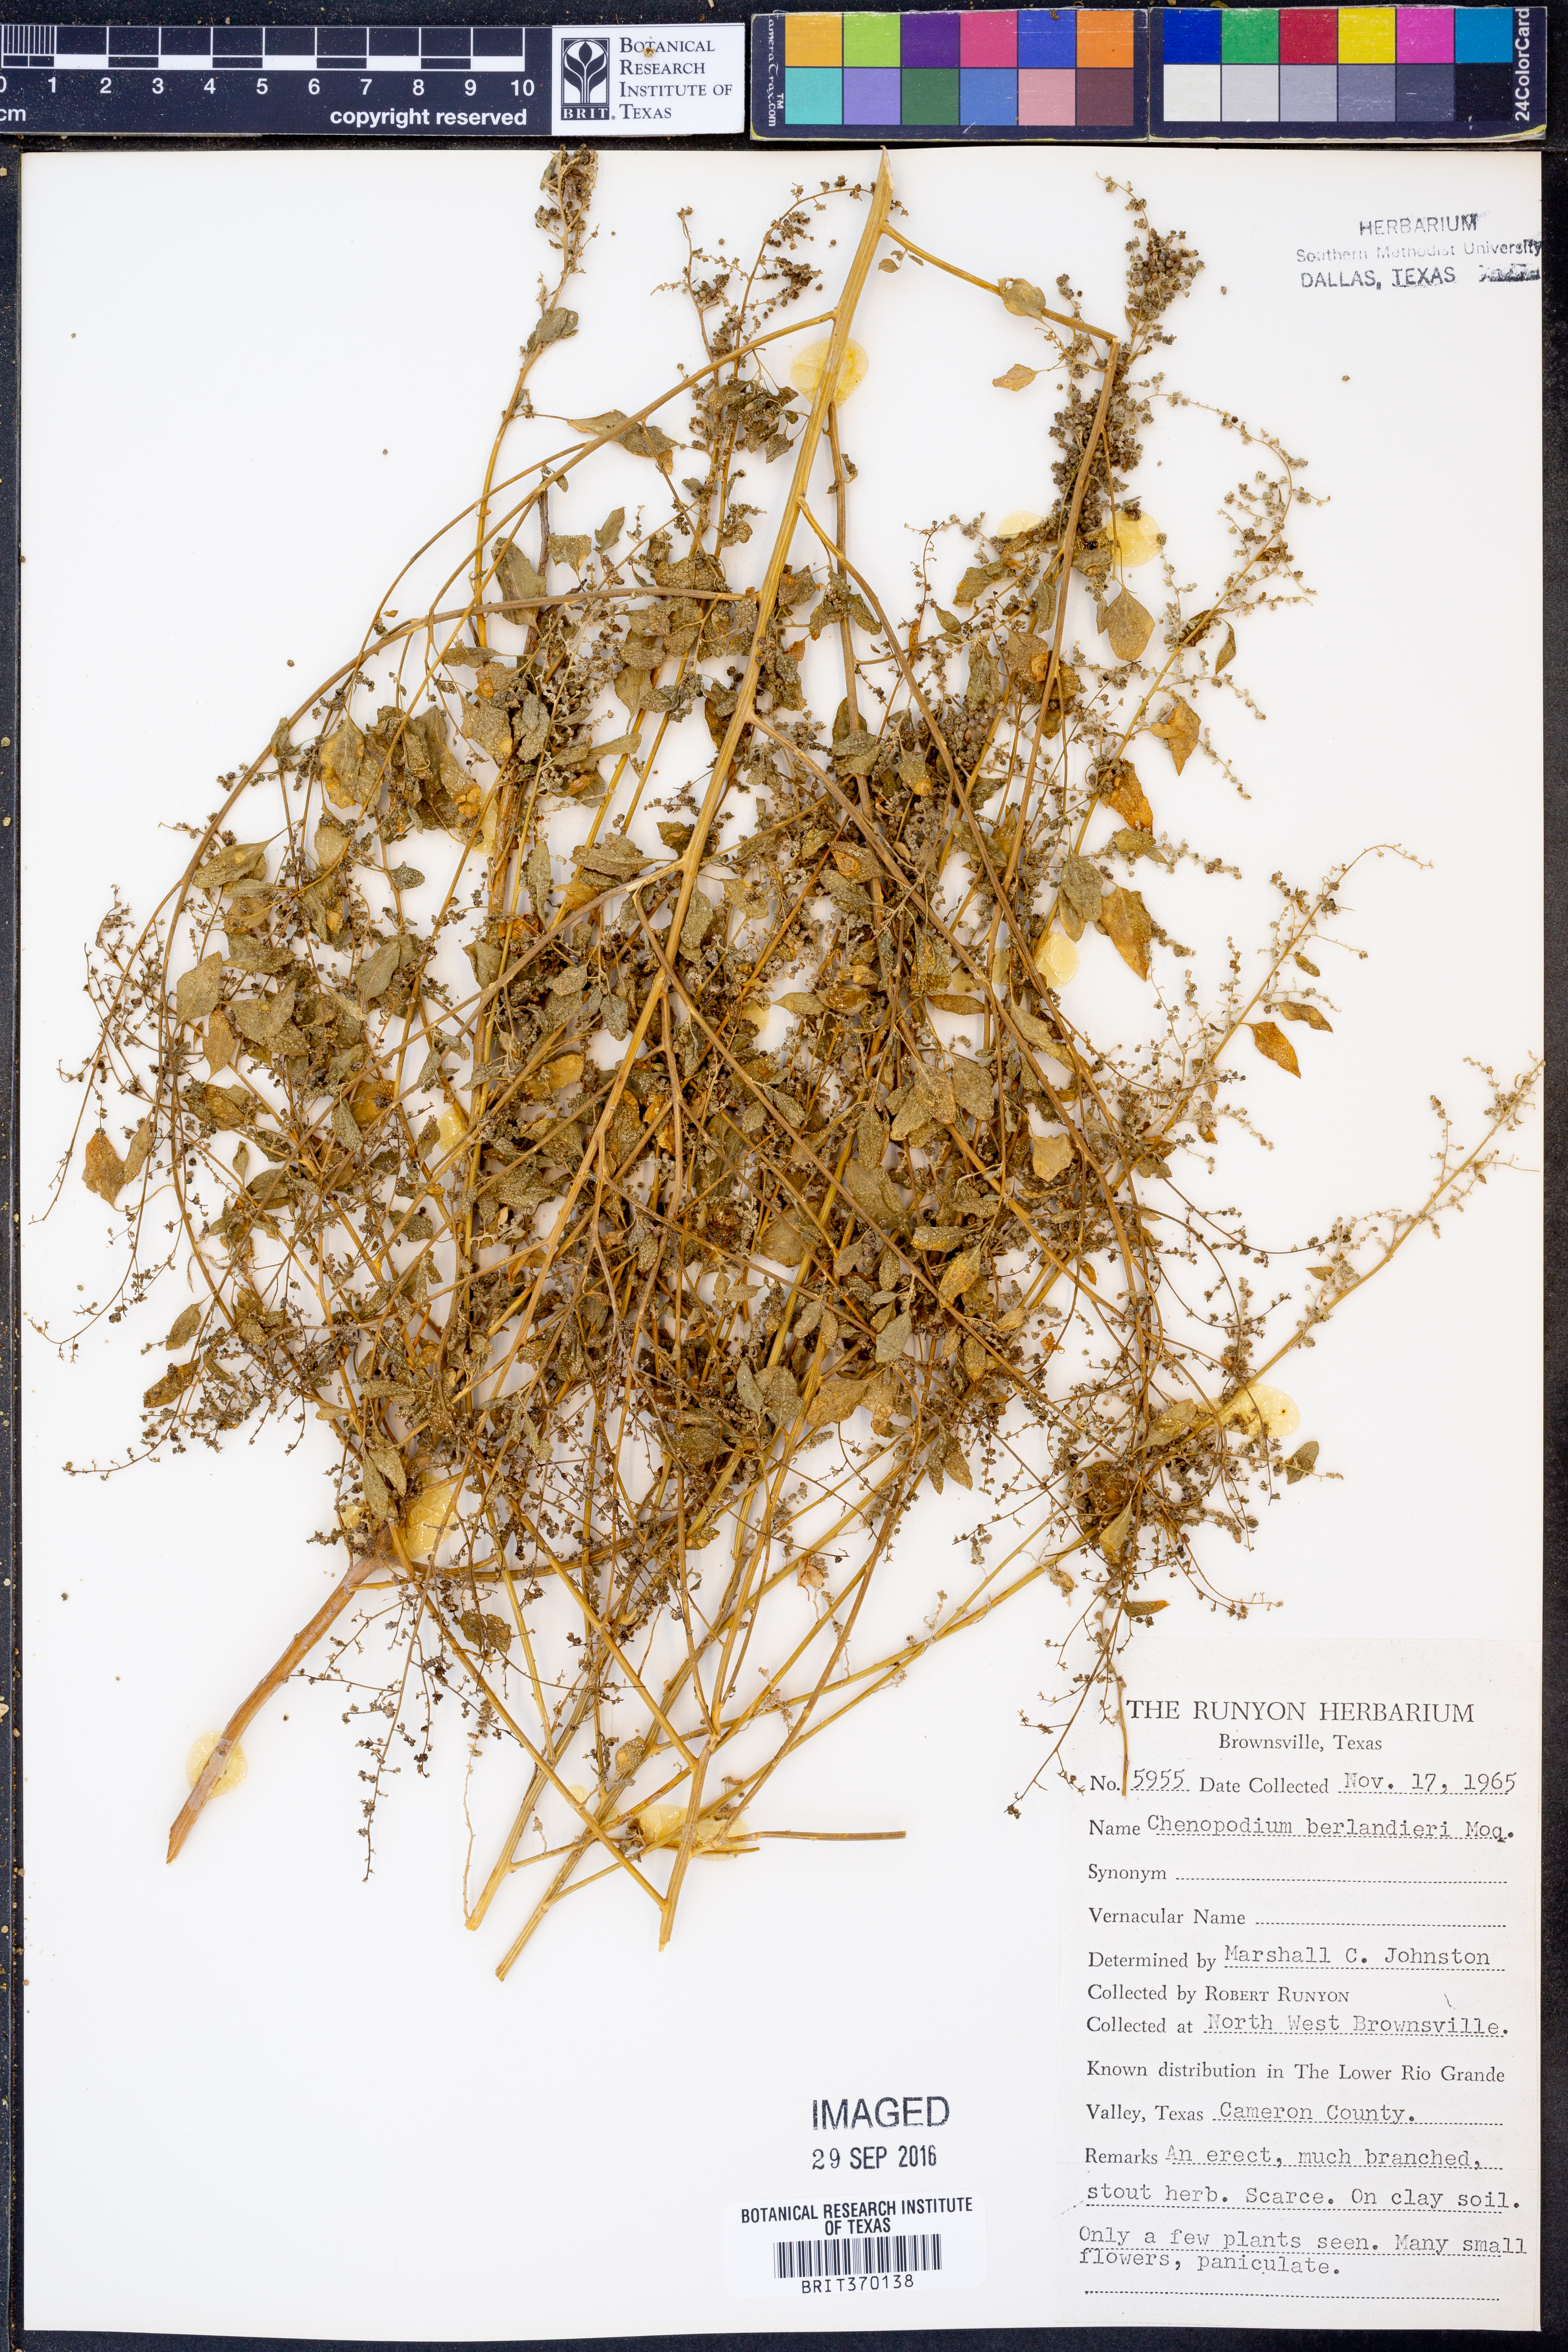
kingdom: Plantae
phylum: Tracheophyta
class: Magnoliopsida
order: Caryophyllales
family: Amaranthaceae
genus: Chenopodium
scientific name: Chenopodium berlandieri
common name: Pit-seed goosefoot
